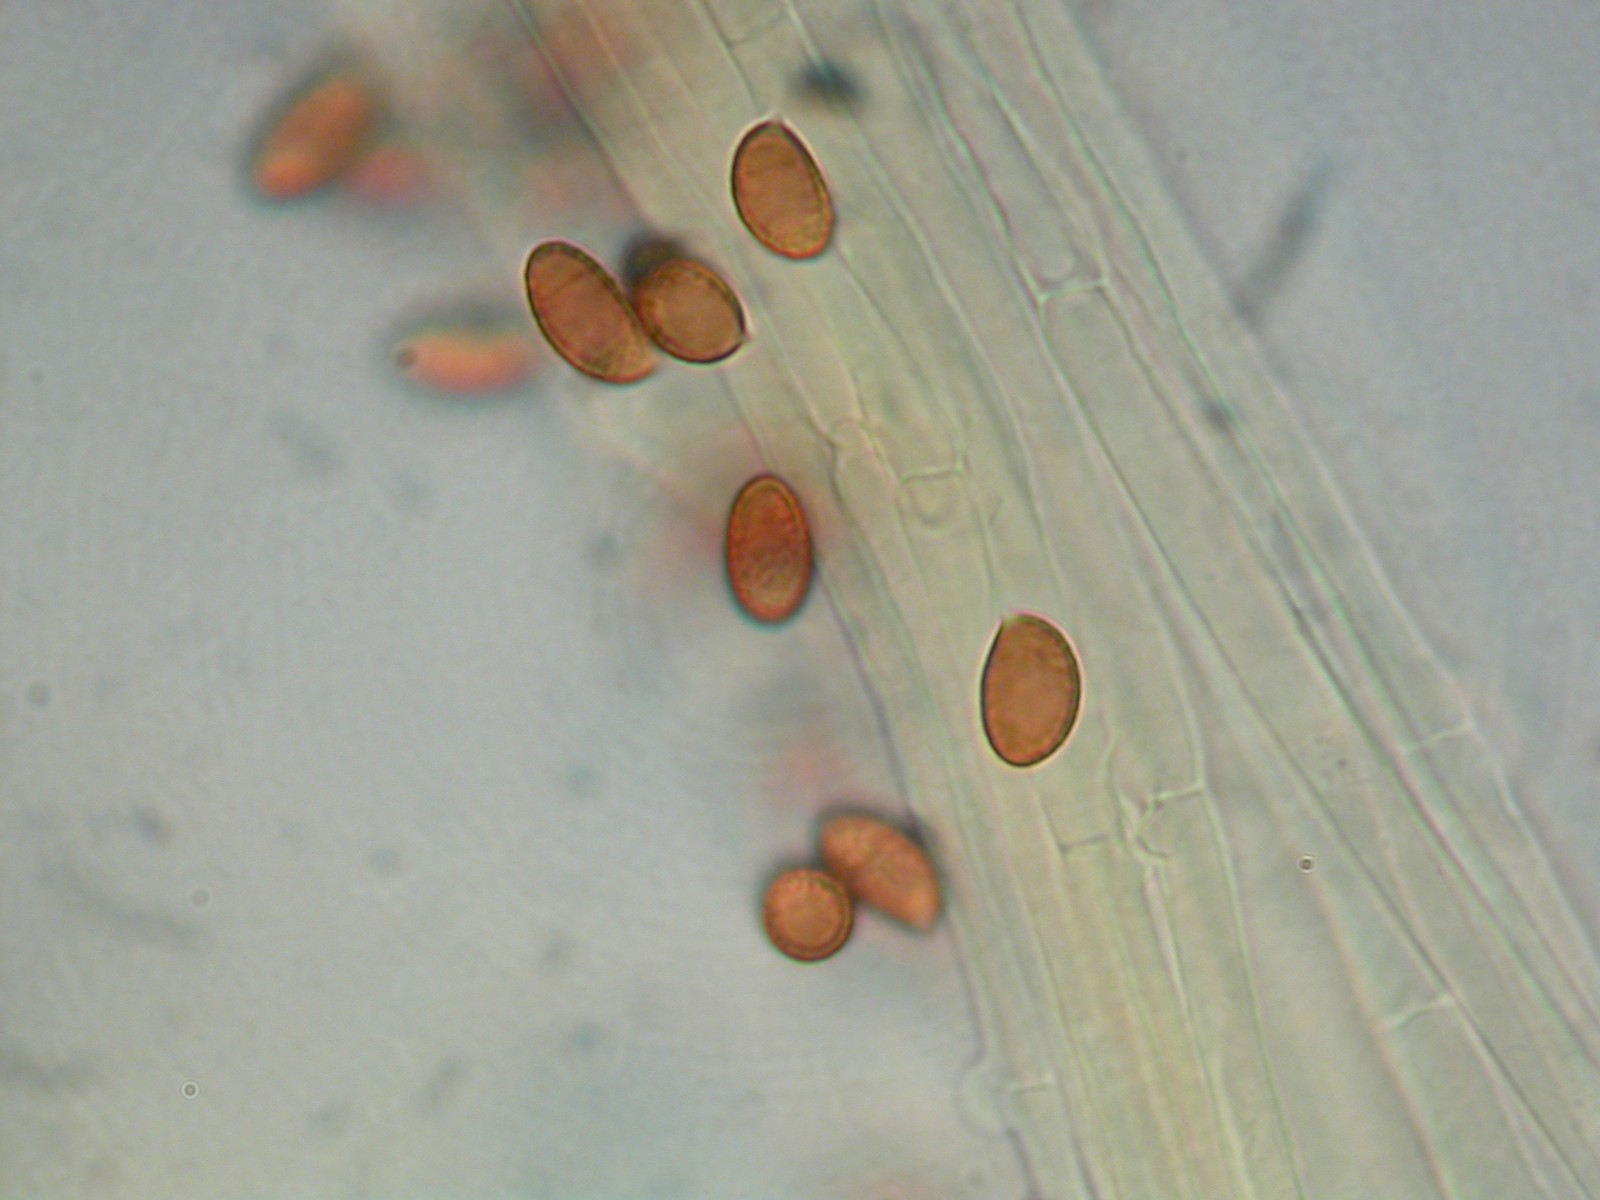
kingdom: Fungi
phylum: Basidiomycota
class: Agaricomycetes
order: Agaricales
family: Cortinariaceae
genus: Cortinarius
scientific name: Cortinarius
